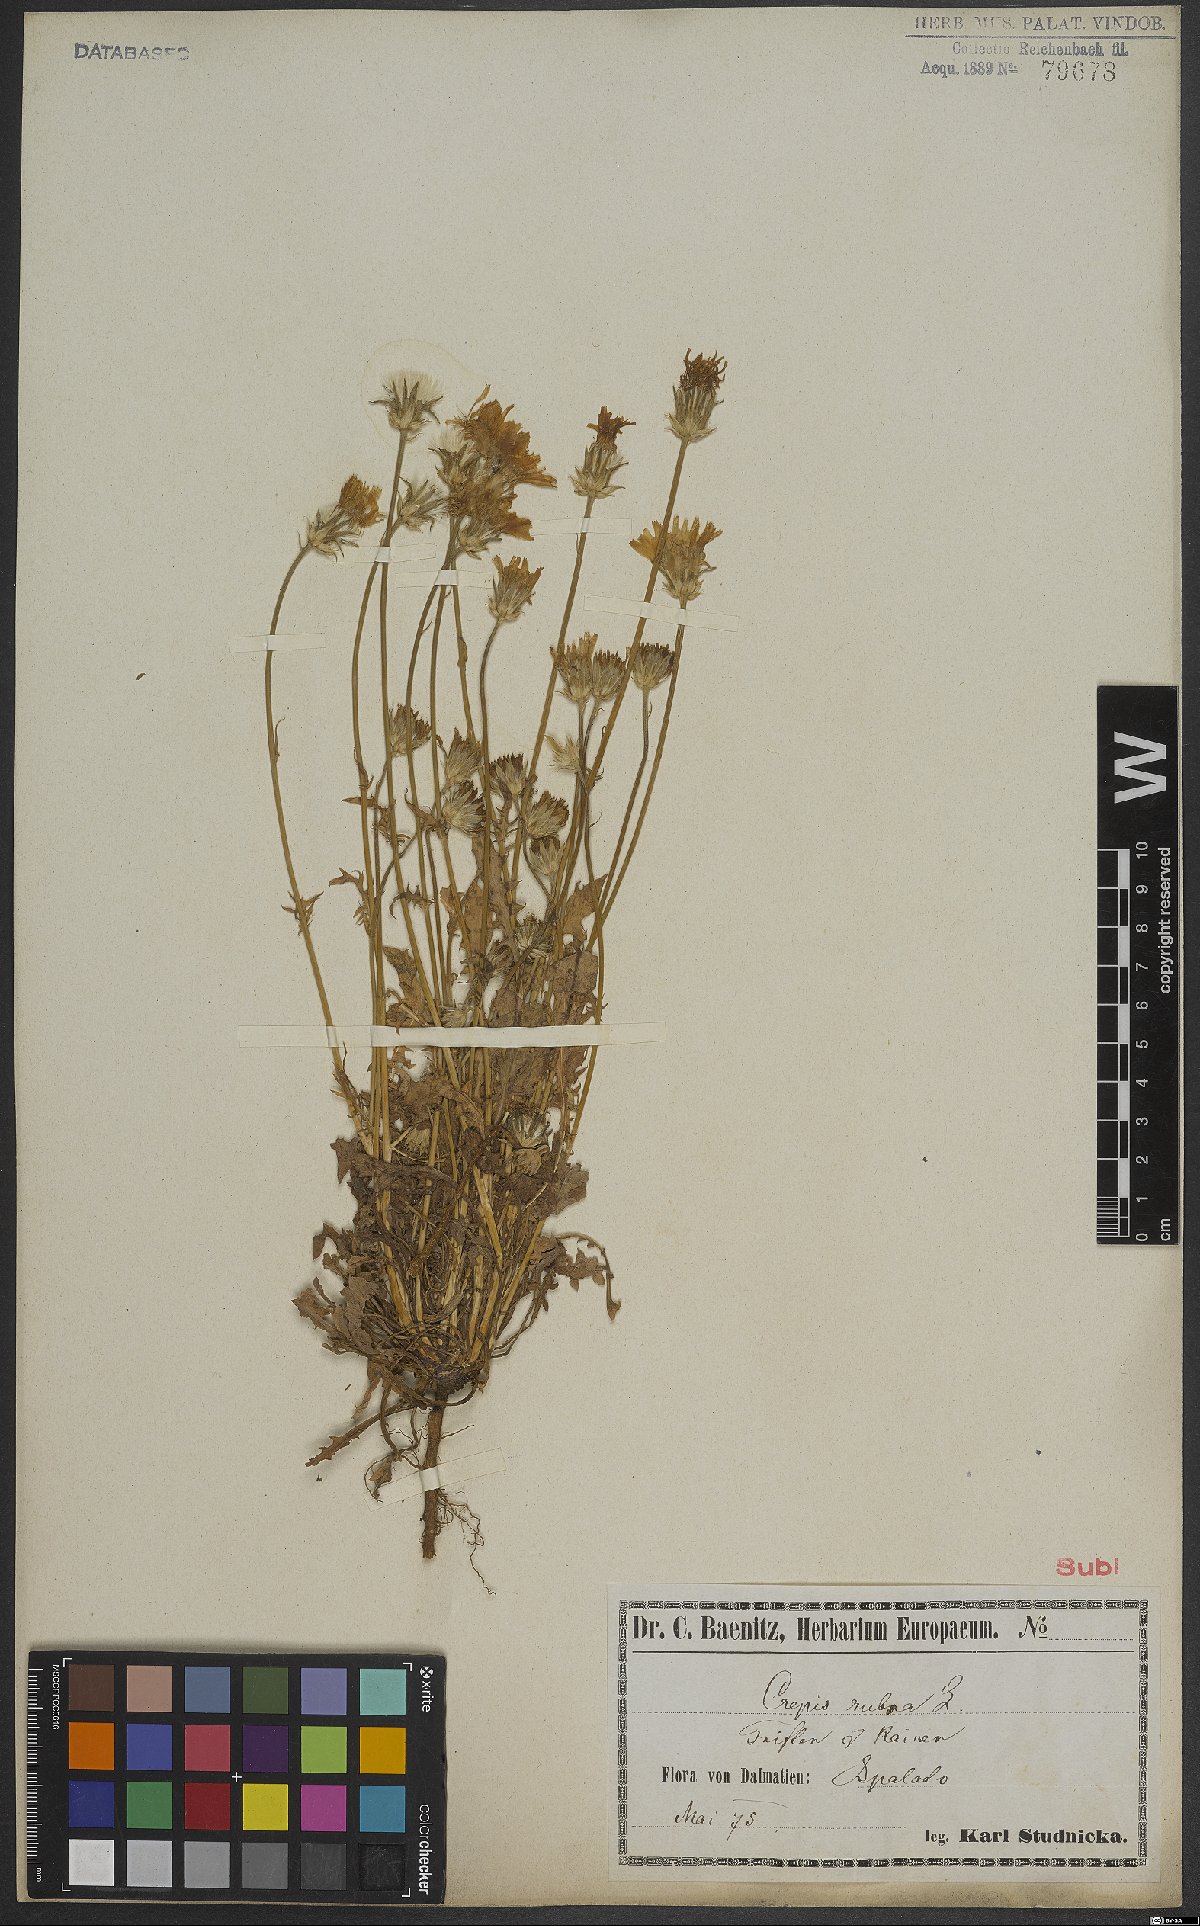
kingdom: Plantae
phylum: Tracheophyta
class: Magnoliopsida
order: Asterales
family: Asteraceae
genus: Crepis
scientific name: Crepis rubra
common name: Pink hawk's-beard
